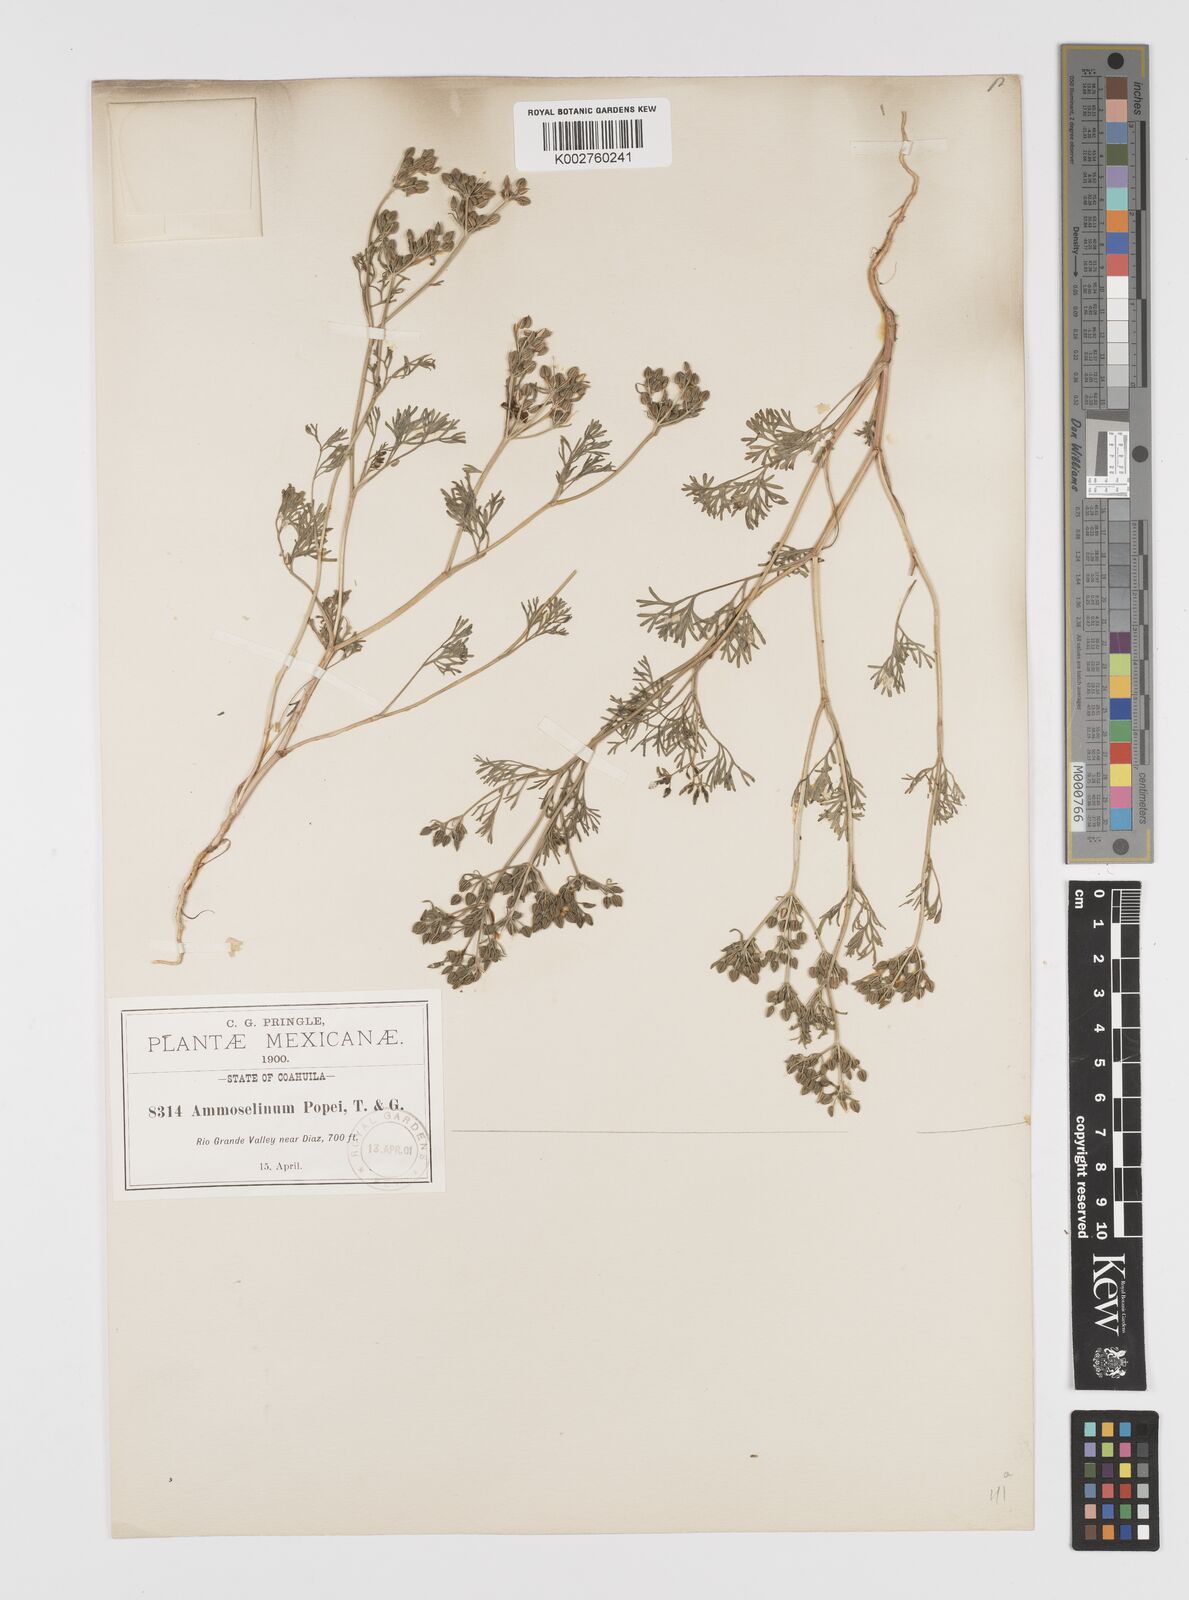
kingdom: Plantae
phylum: Tracheophyta
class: Magnoliopsida
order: Apiales
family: Apiaceae
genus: Ammoselinum
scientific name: Ammoselinum popei
